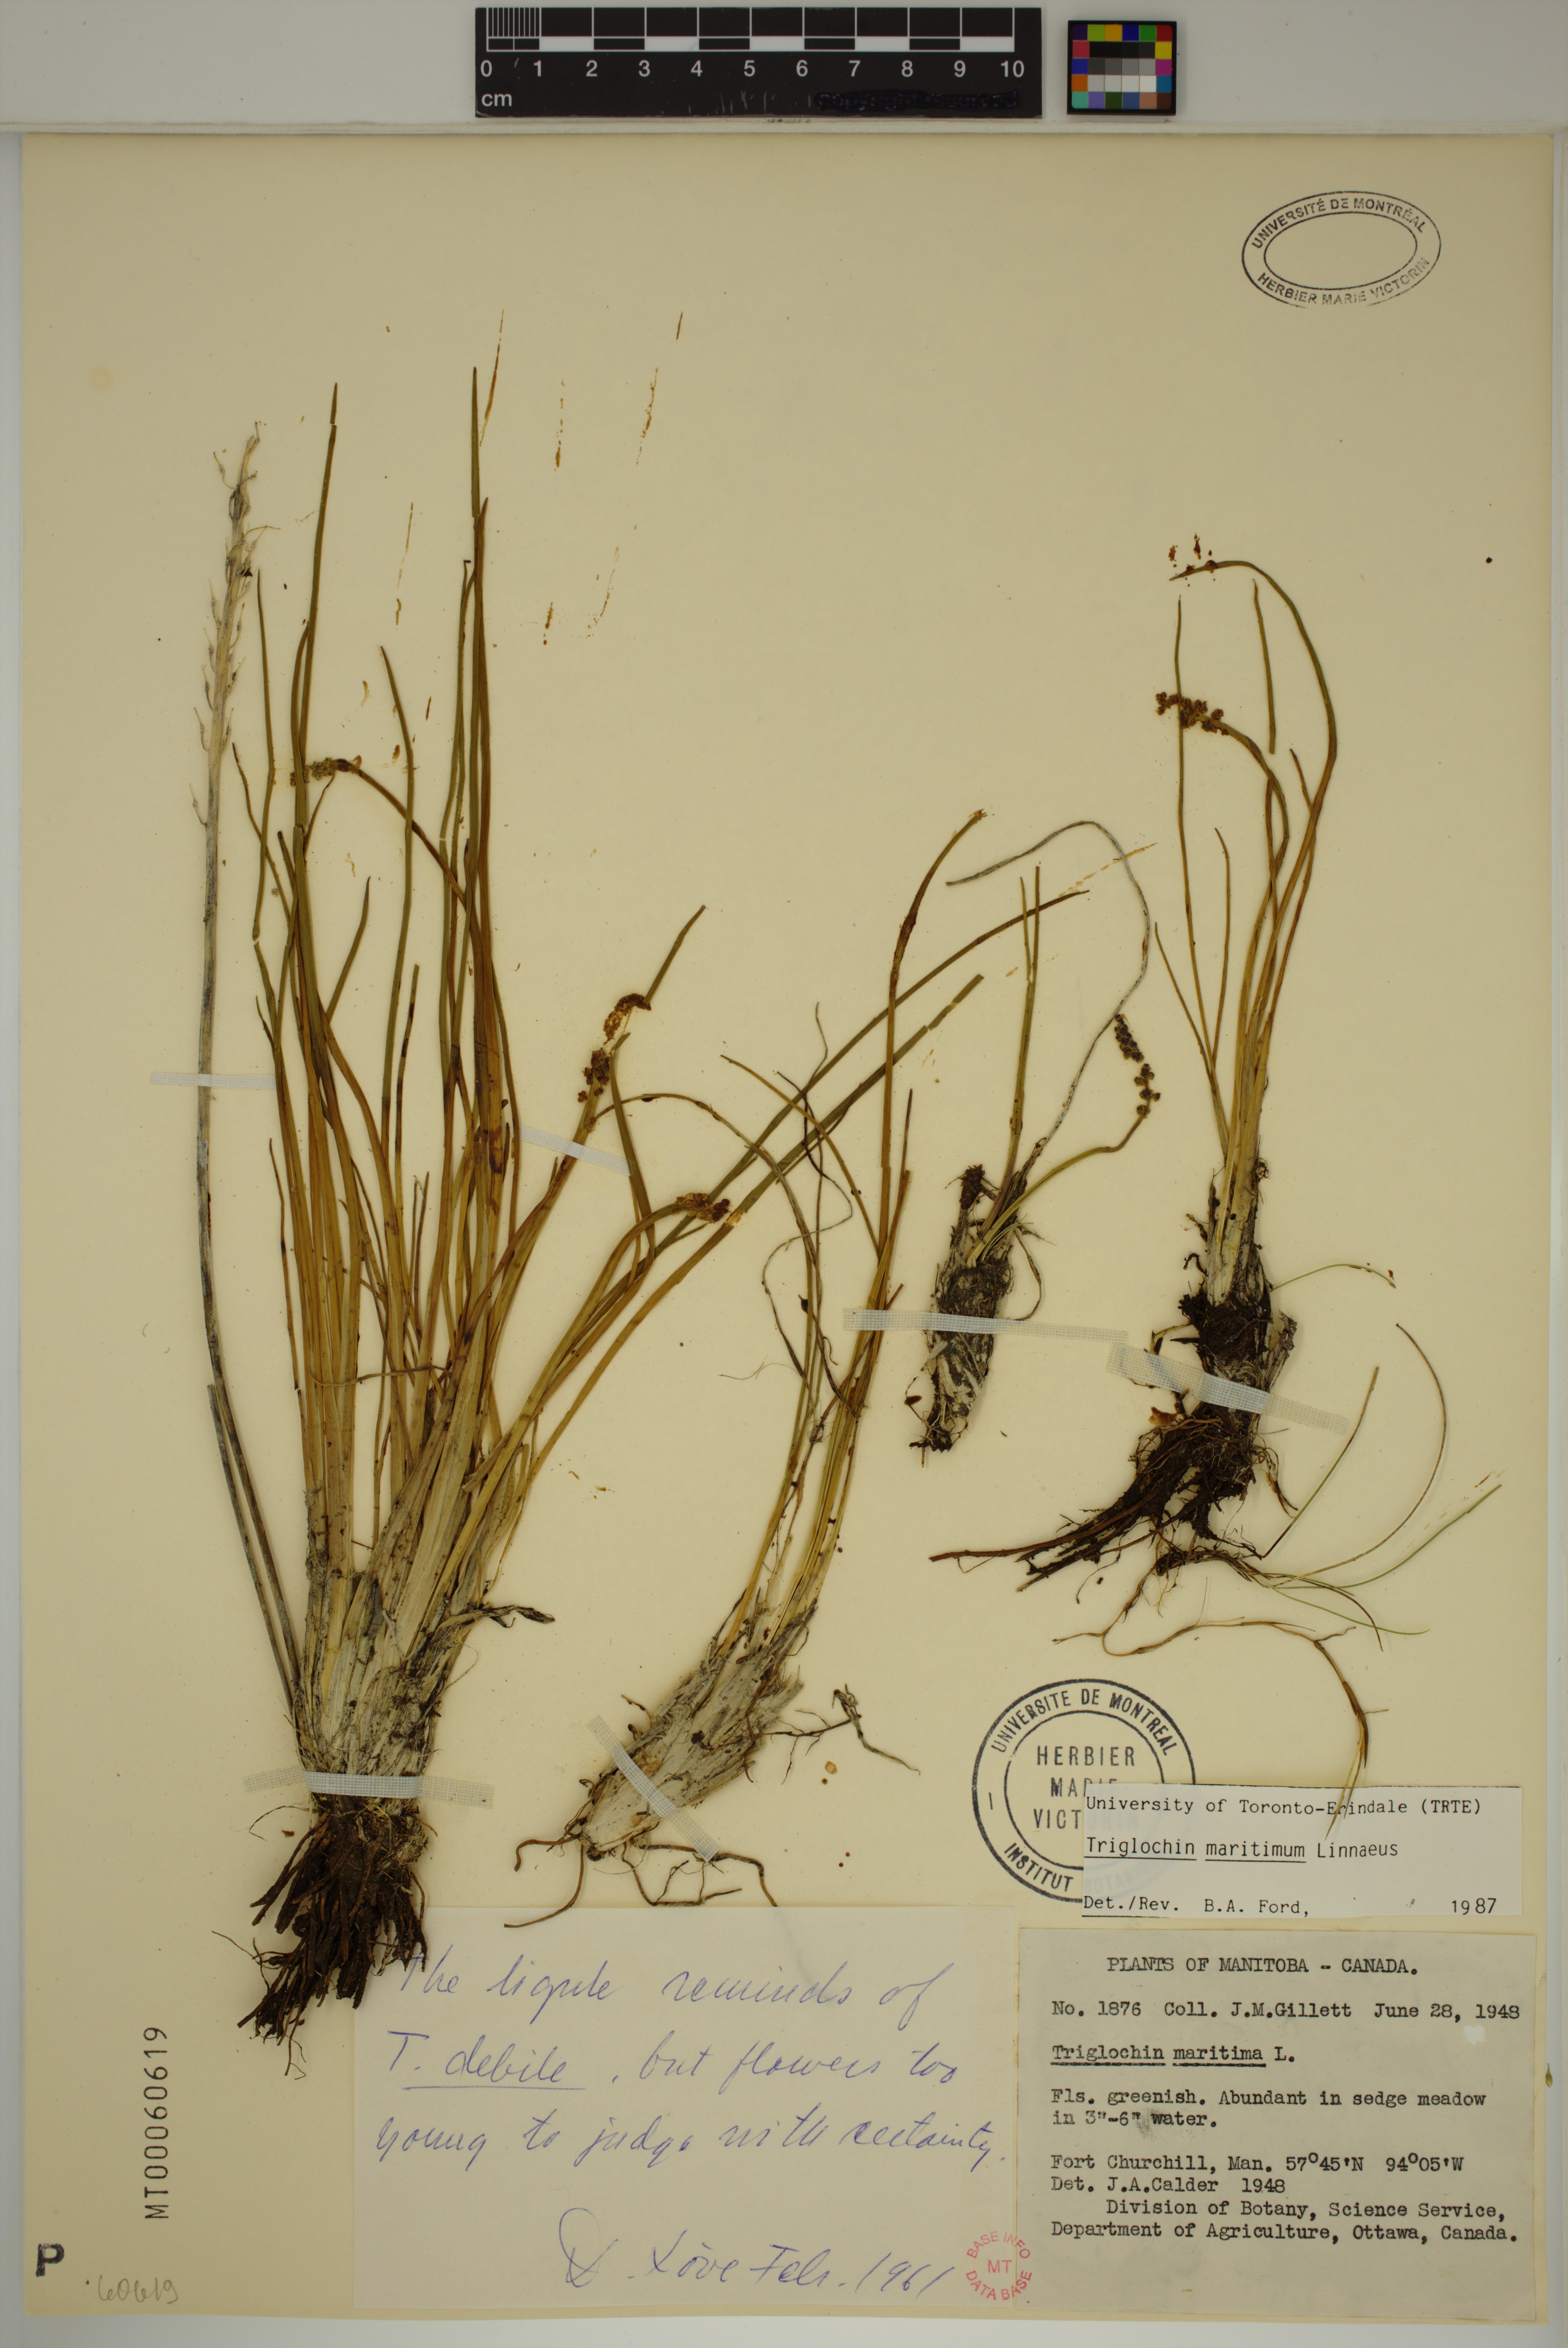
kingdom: Plantae
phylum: Tracheophyta
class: Liliopsida
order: Alismatales
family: Juncaginaceae
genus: Triglochin
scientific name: Triglochin maritima
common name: Sea arrowgrass
